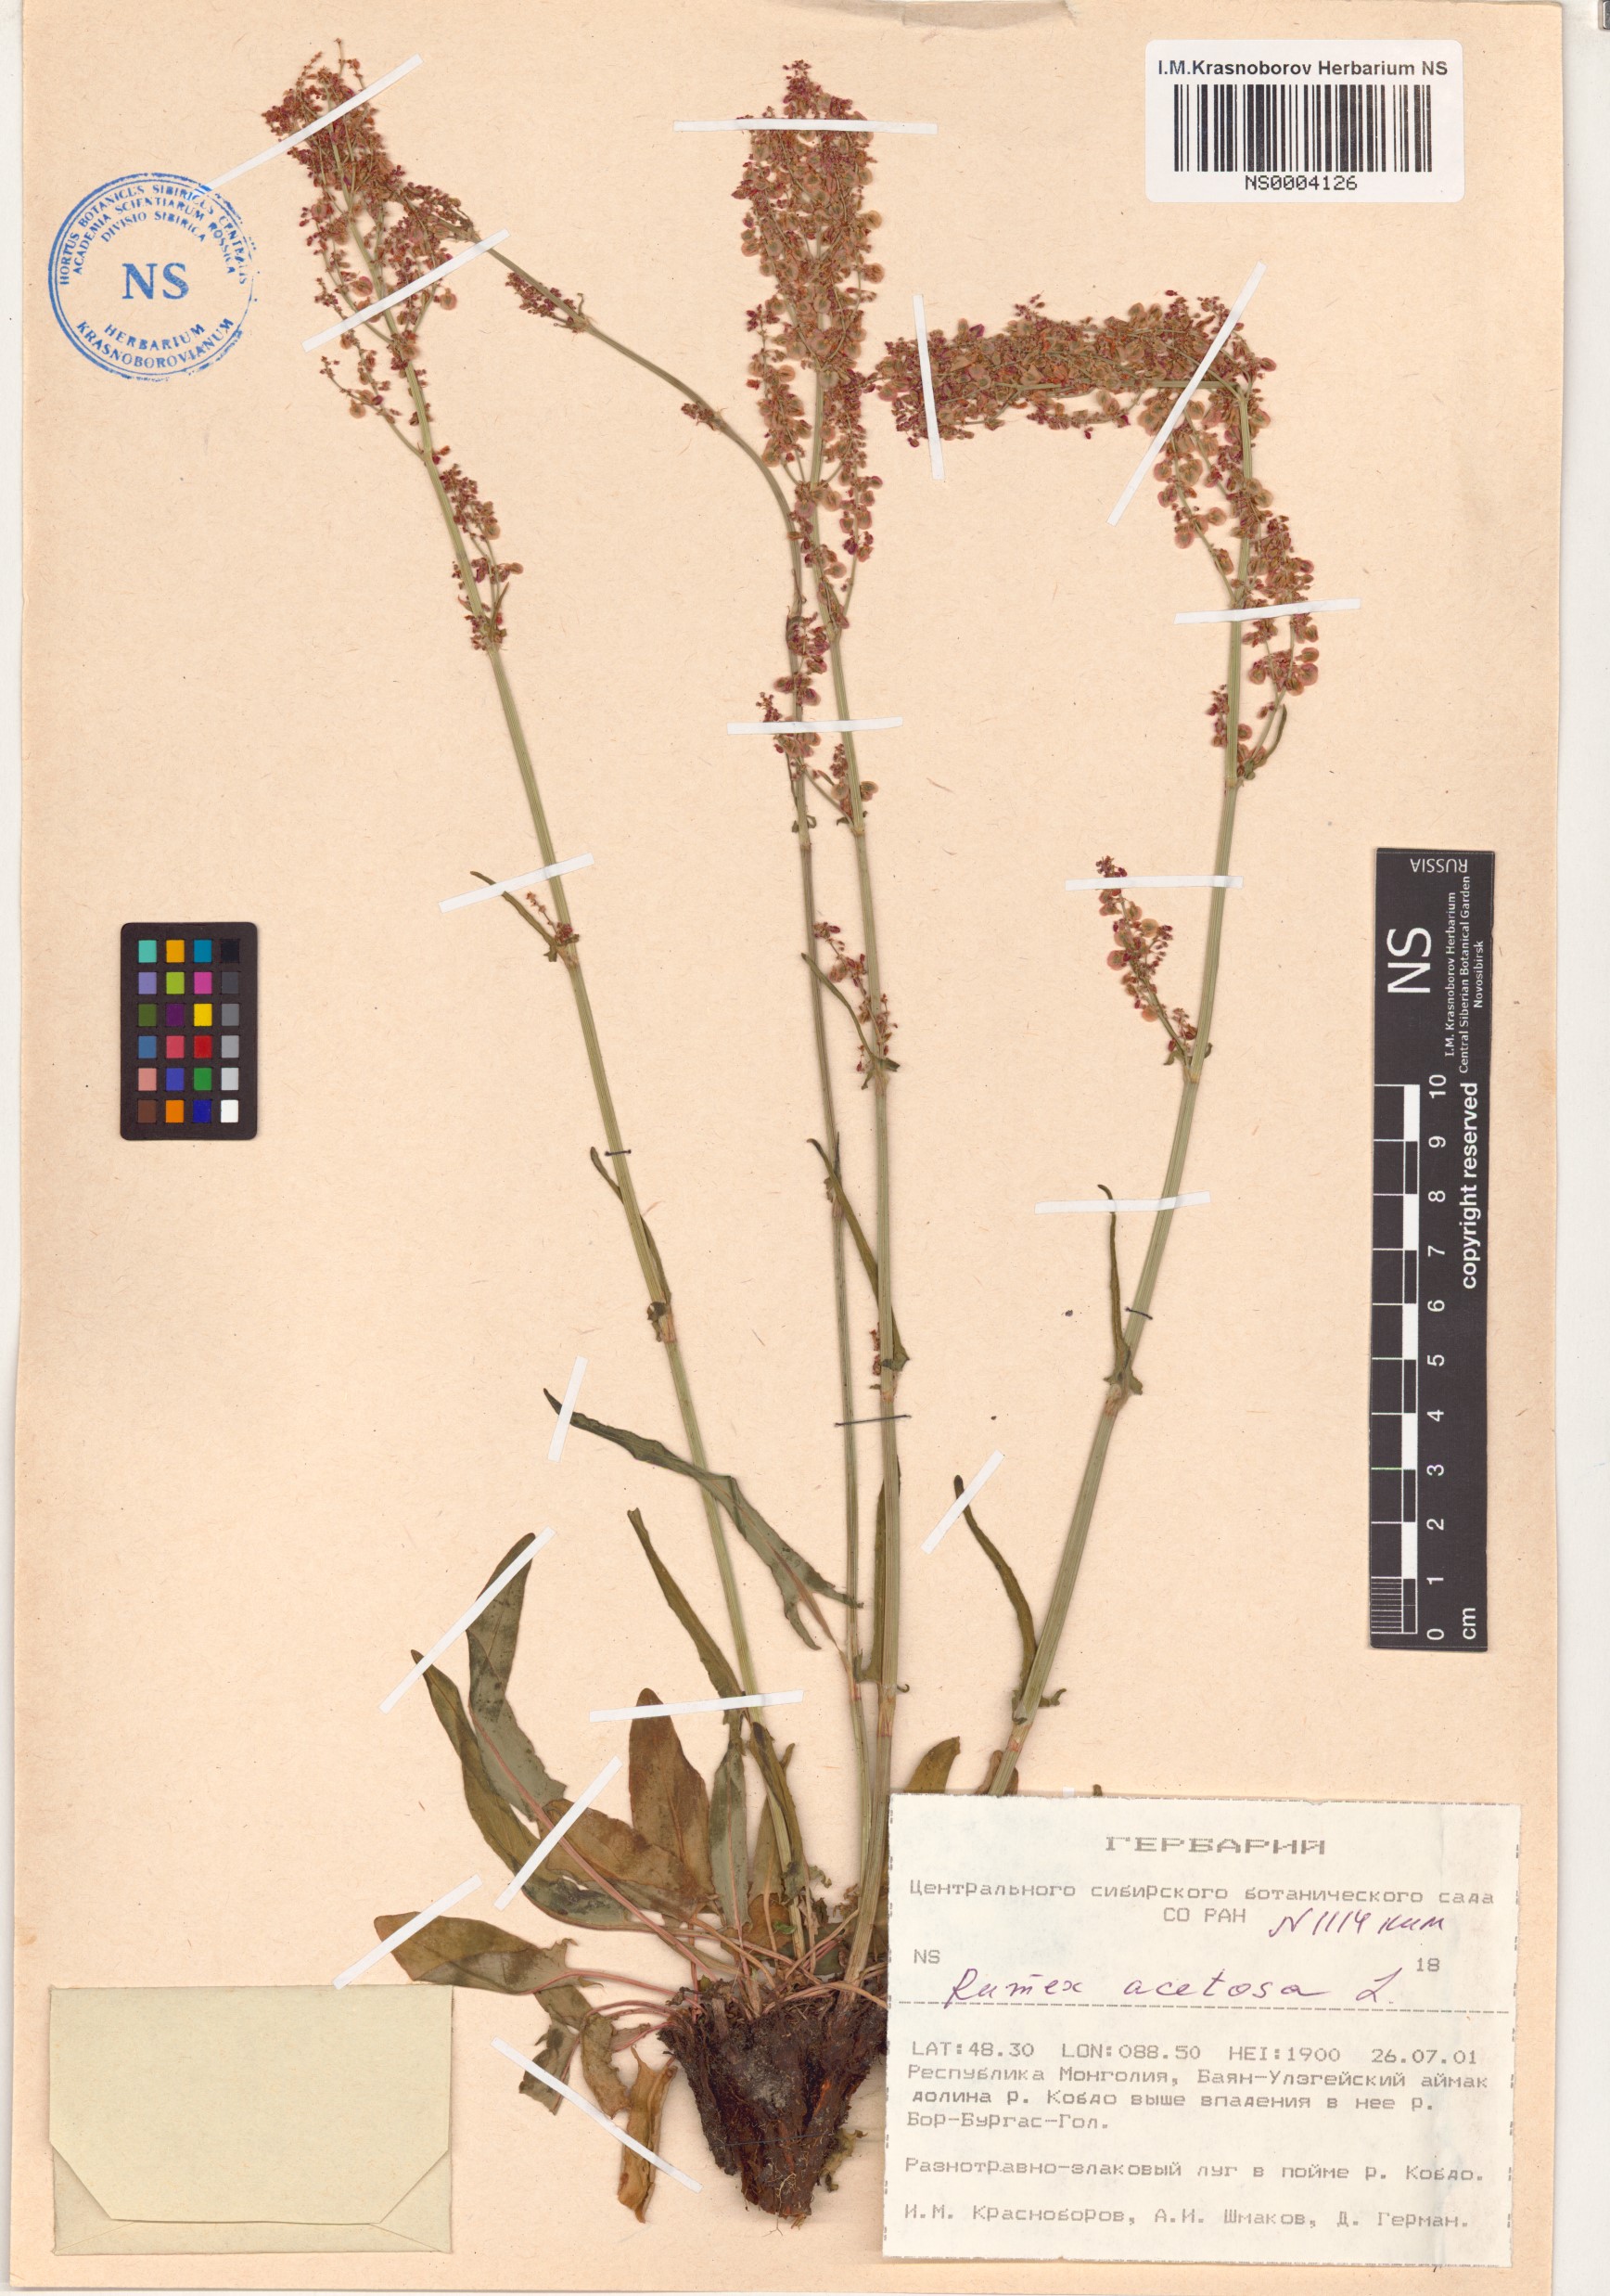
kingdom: Plantae
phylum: Tracheophyta
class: Magnoliopsida
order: Caryophyllales
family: Polygonaceae
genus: Rumex
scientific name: Rumex acetosa
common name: Garden sorrel
